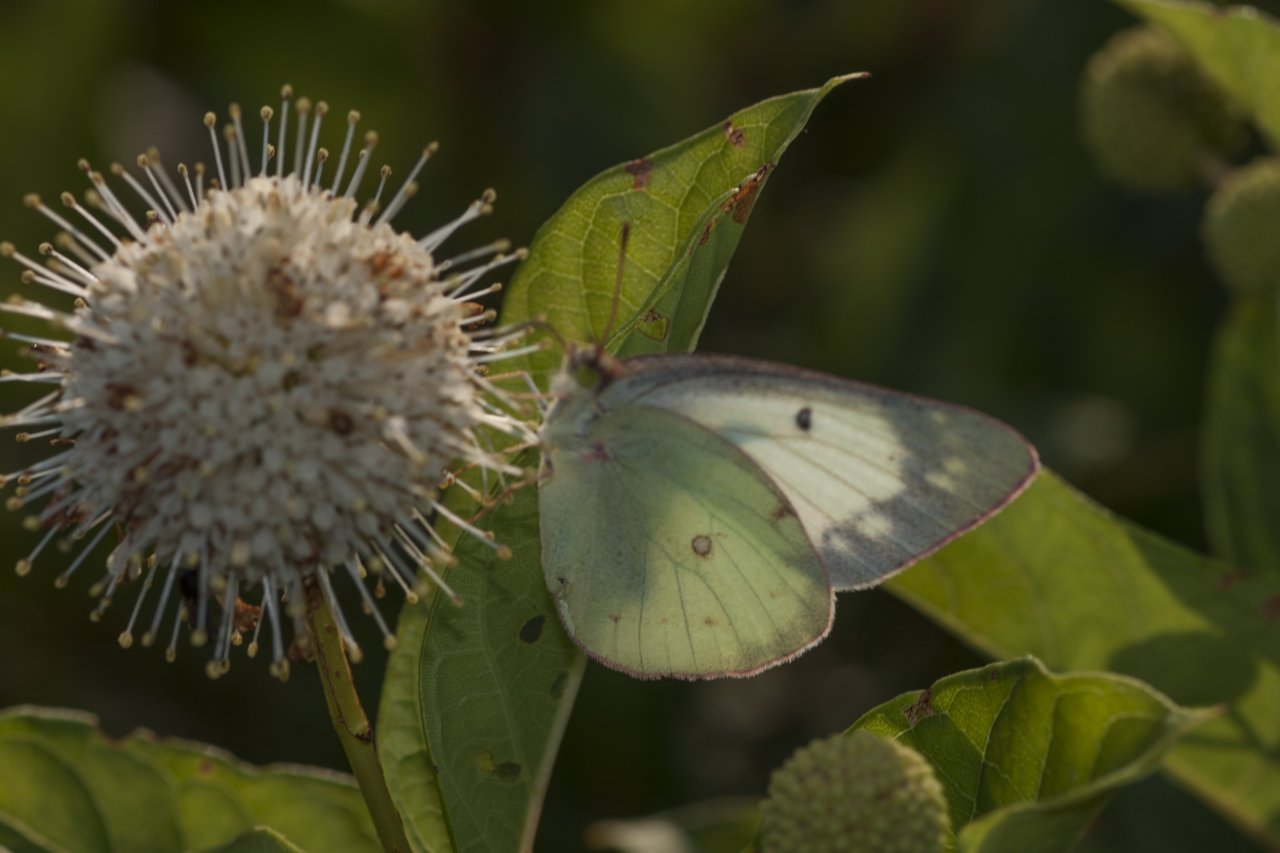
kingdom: Animalia
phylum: Arthropoda
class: Insecta
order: Lepidoptera
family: Pieridae
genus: Colias
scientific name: Colias philodice
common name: Clouded Sulphur
